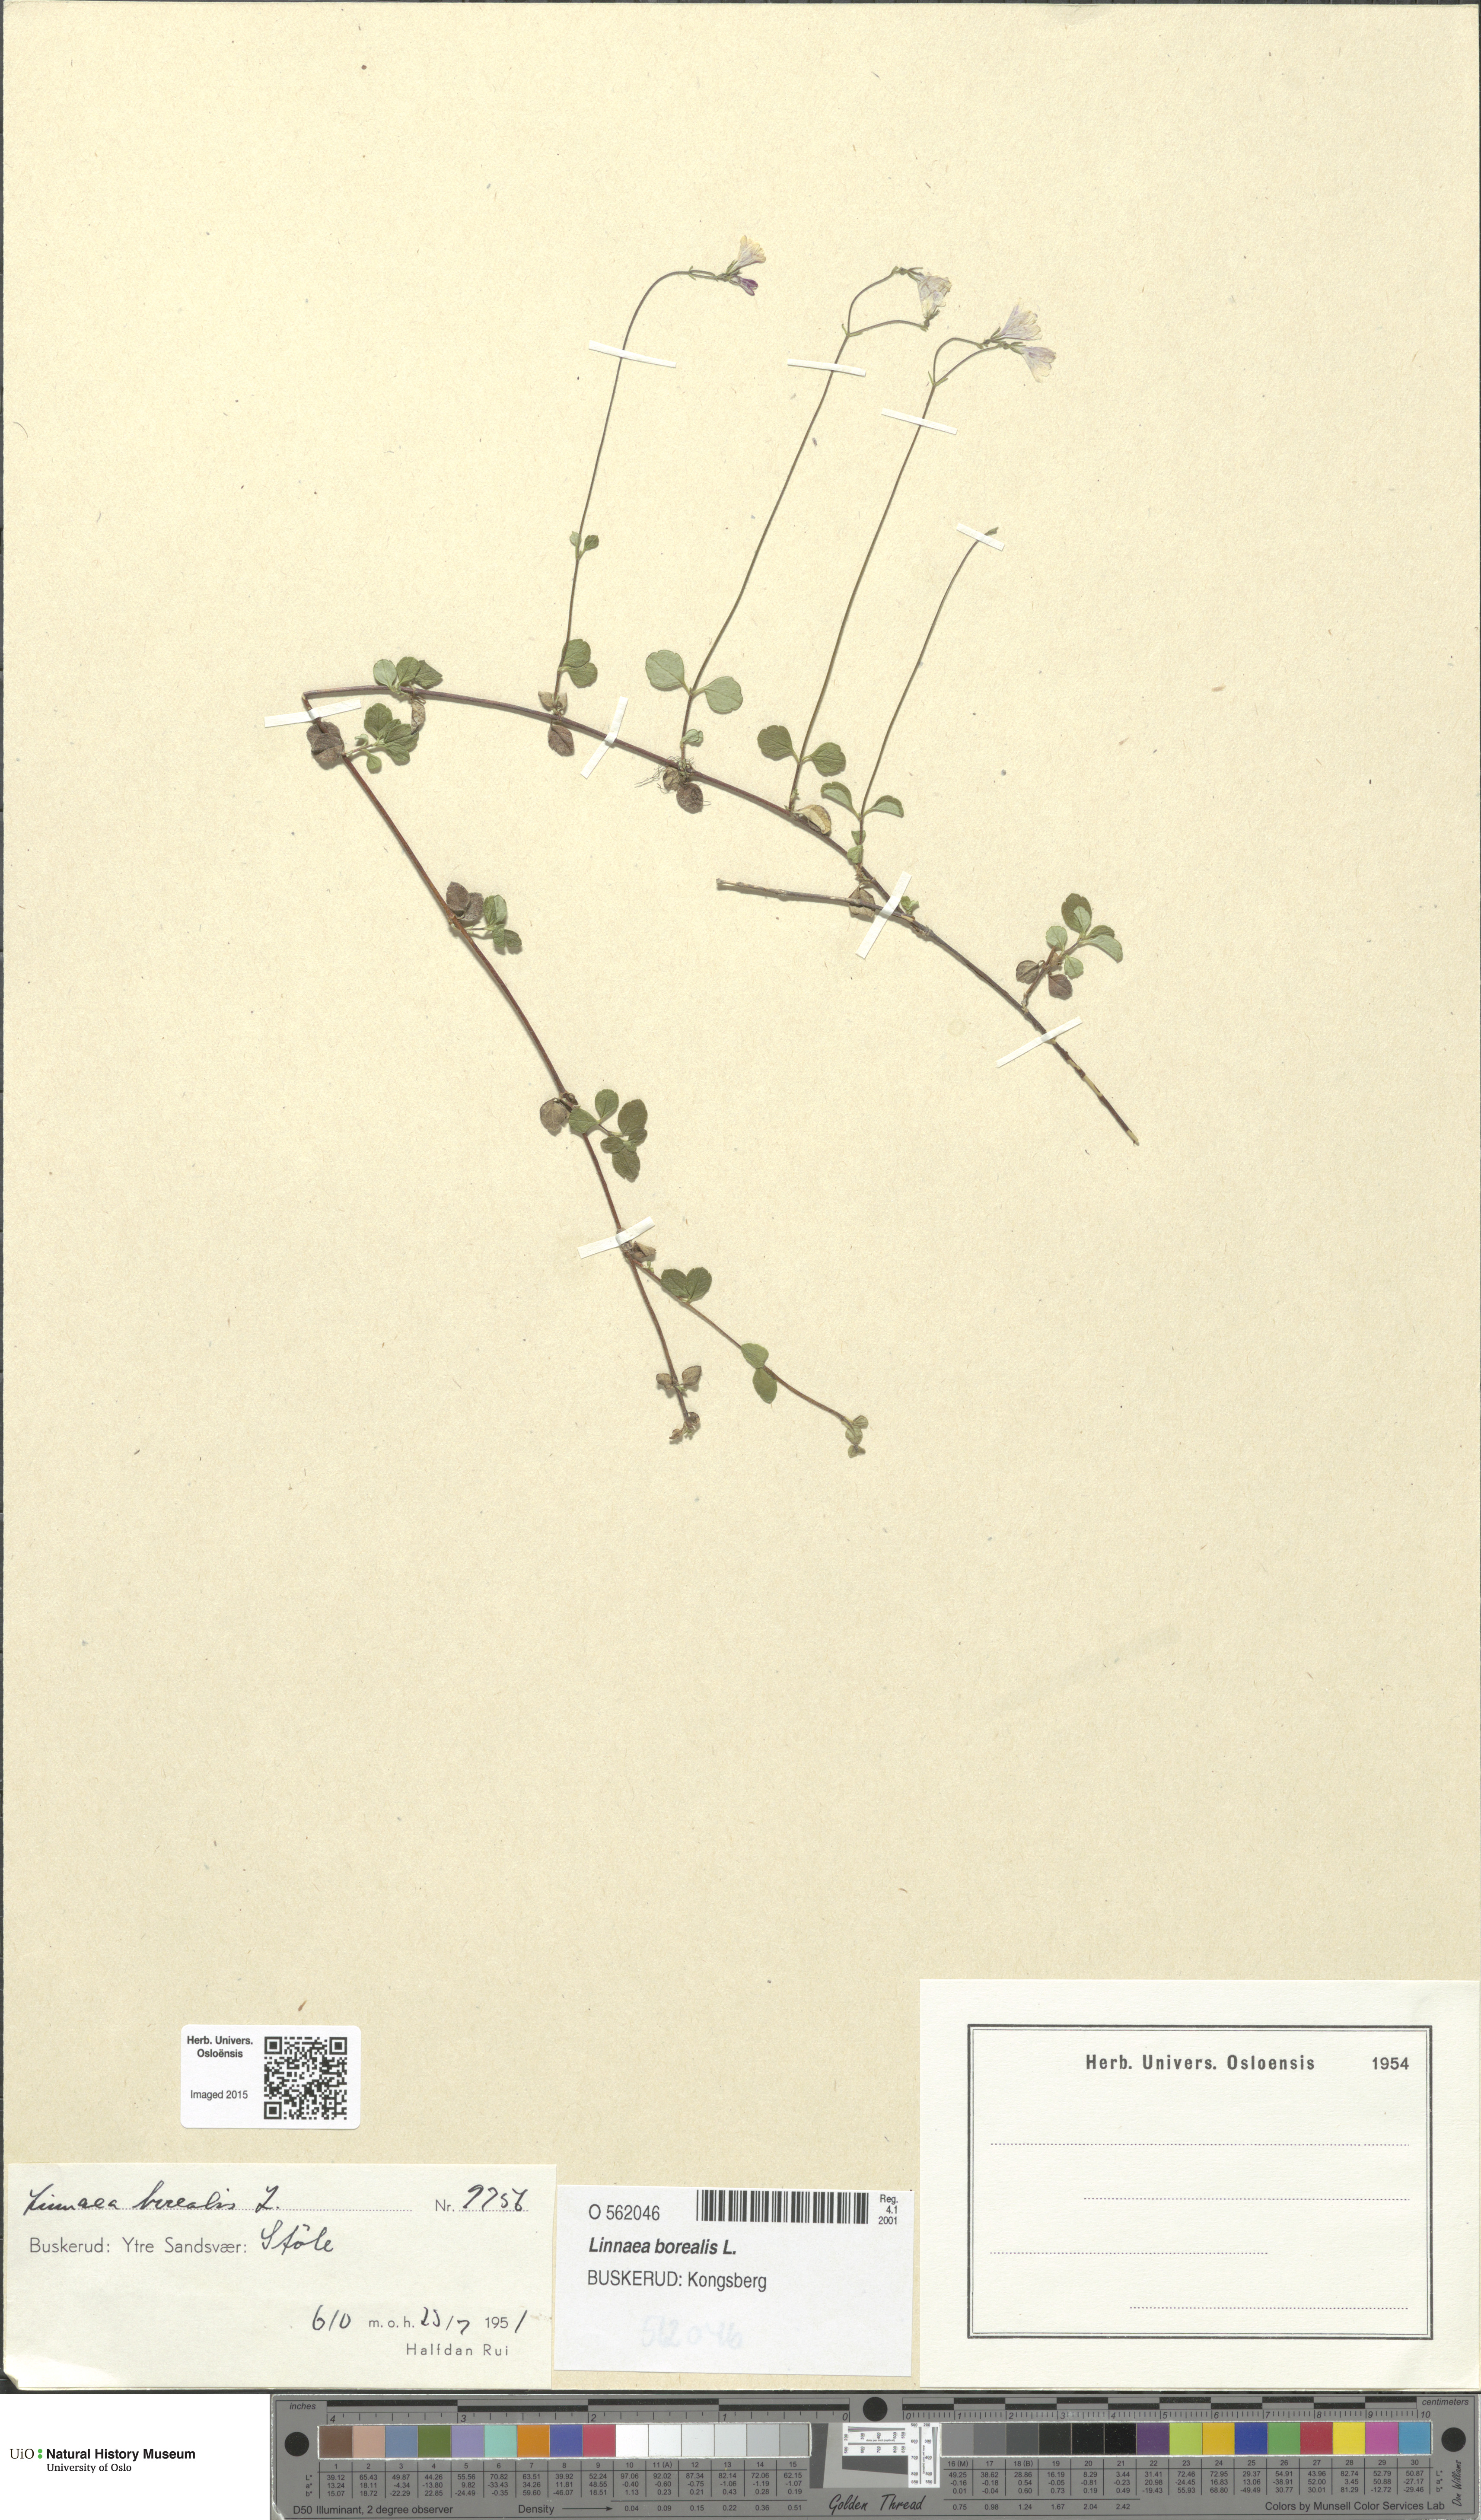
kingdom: Plantae
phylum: Tracheophyta
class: Magnoliopsida
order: Dipsacales
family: Caprifoliaceae
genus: Linnaea
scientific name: Linnaea borealis
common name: Twinflower
